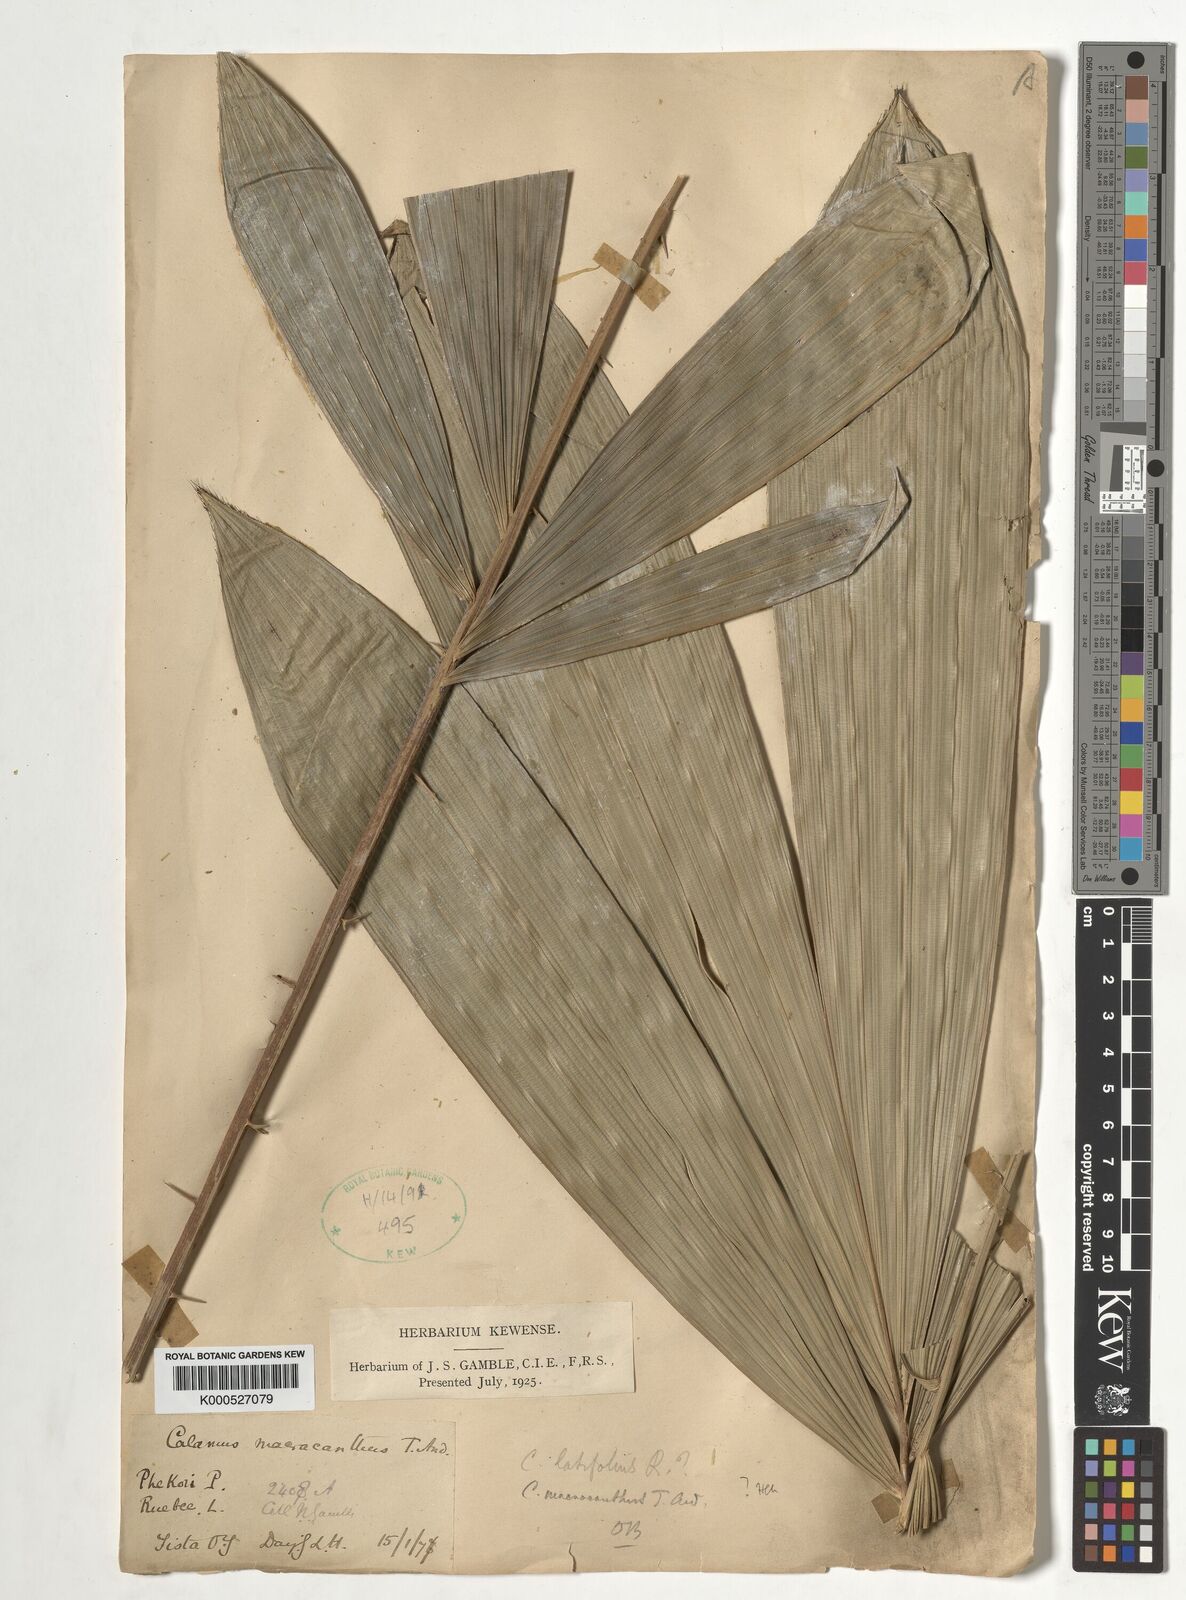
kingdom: Plantae
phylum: Tracheophyta
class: Liliopsida
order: Arecales
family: Arecaceae
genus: Calamus
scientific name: Calamus latifolius
